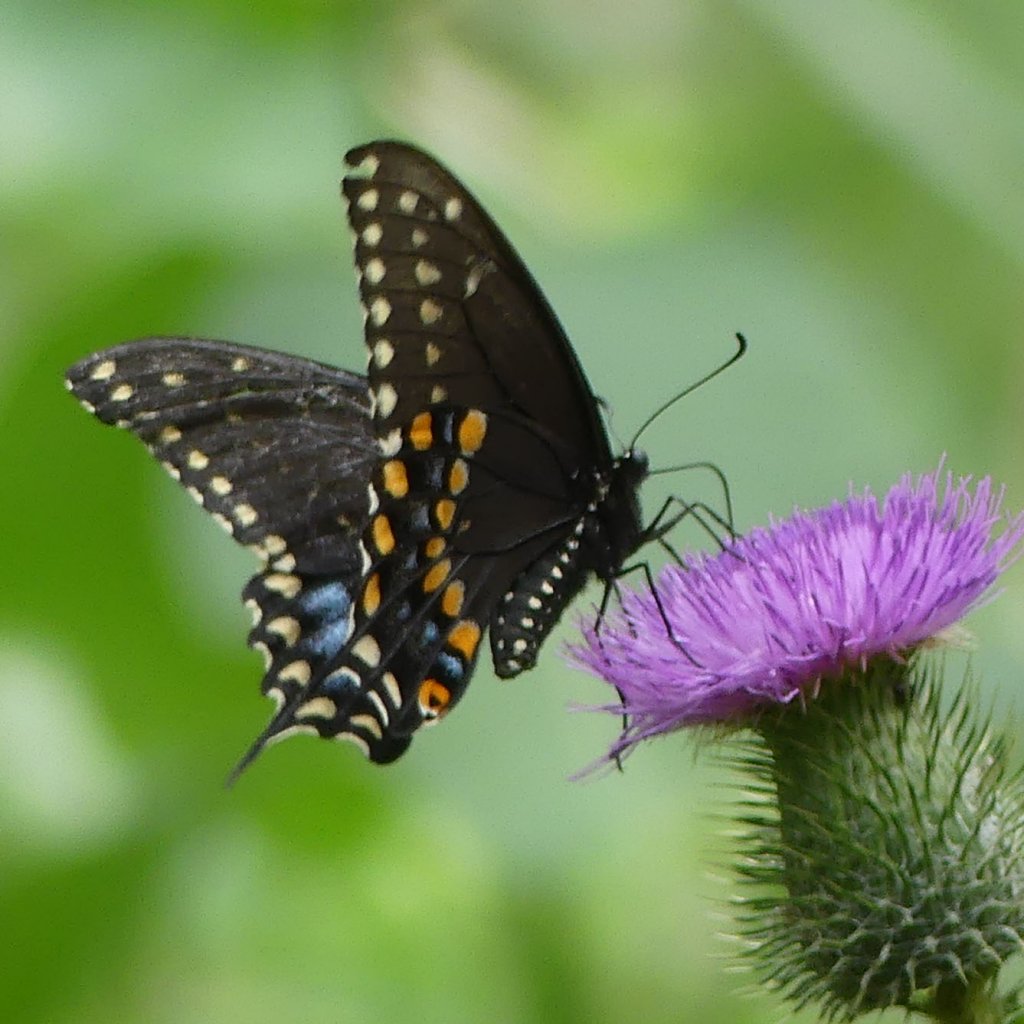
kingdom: Animalia
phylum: Arthropoda
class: Insecta
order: Lepidoptera
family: Papilionidae
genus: Papilio
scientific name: Papilio polyxenes
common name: Black Swallowtail
